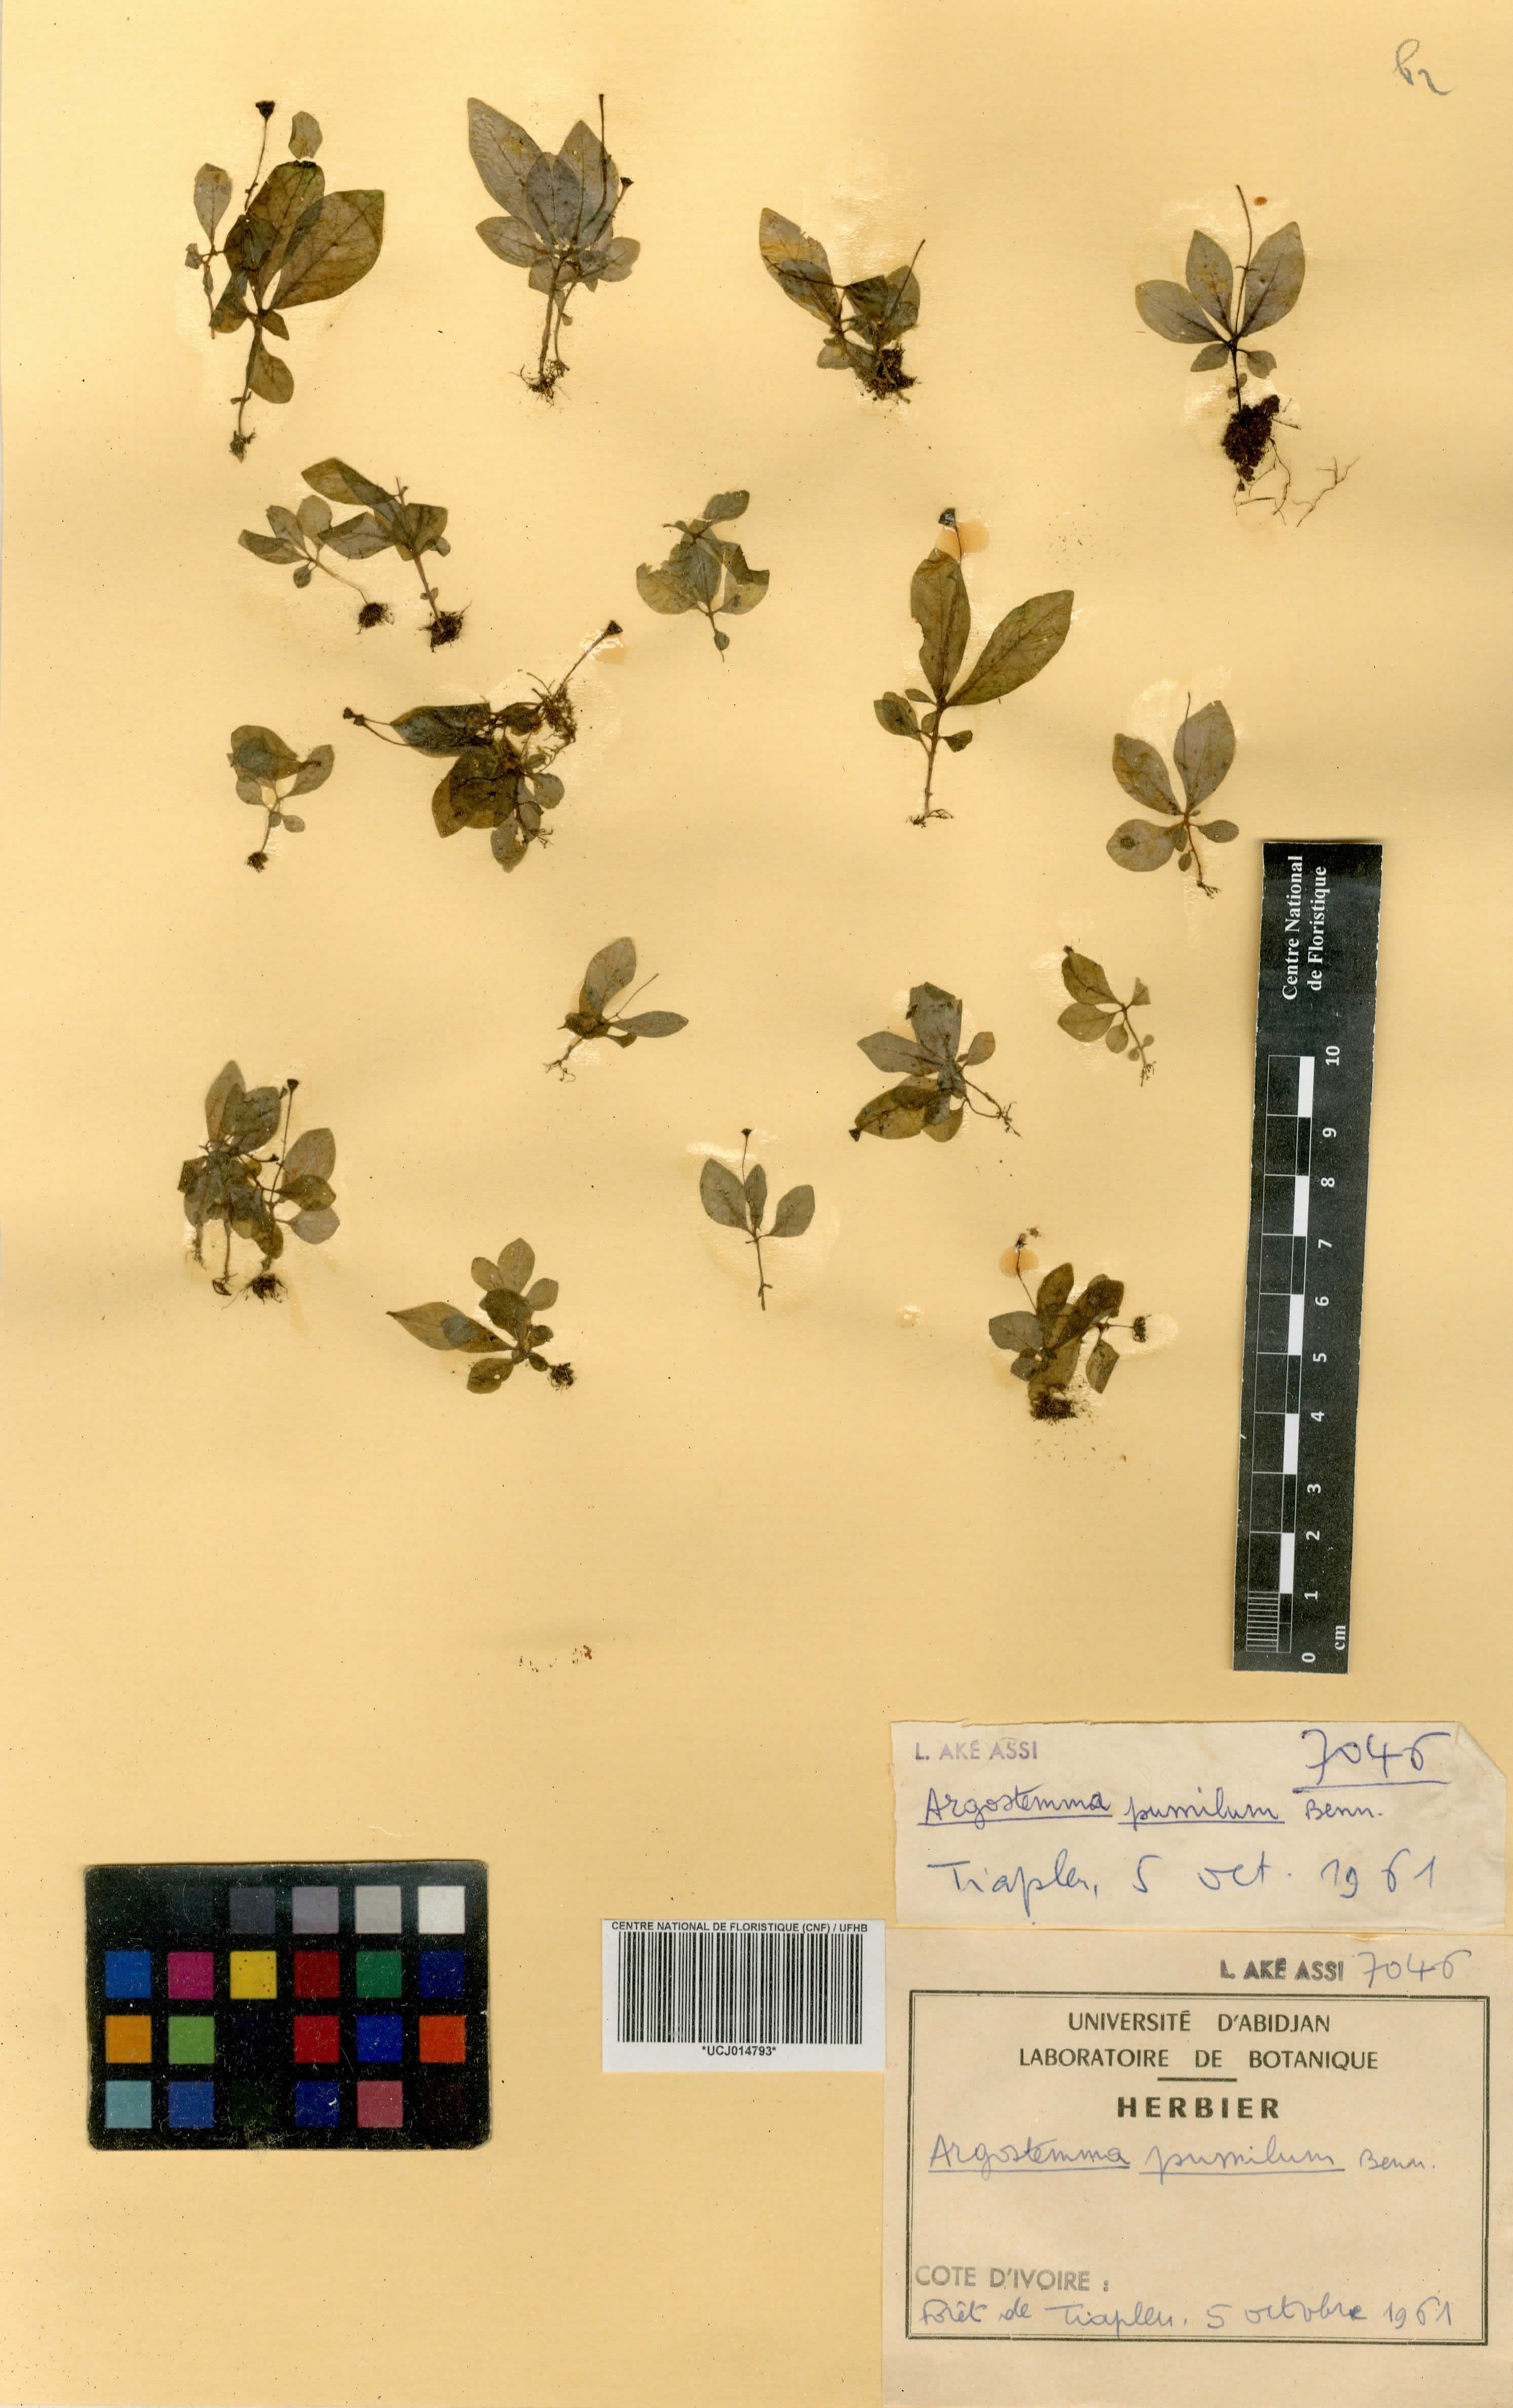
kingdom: Plantae
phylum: Tracheophyta
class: Magnoliopsida
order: Gentianales
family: Rubiaceae
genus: Argostemma
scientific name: Argostemma pumilum
